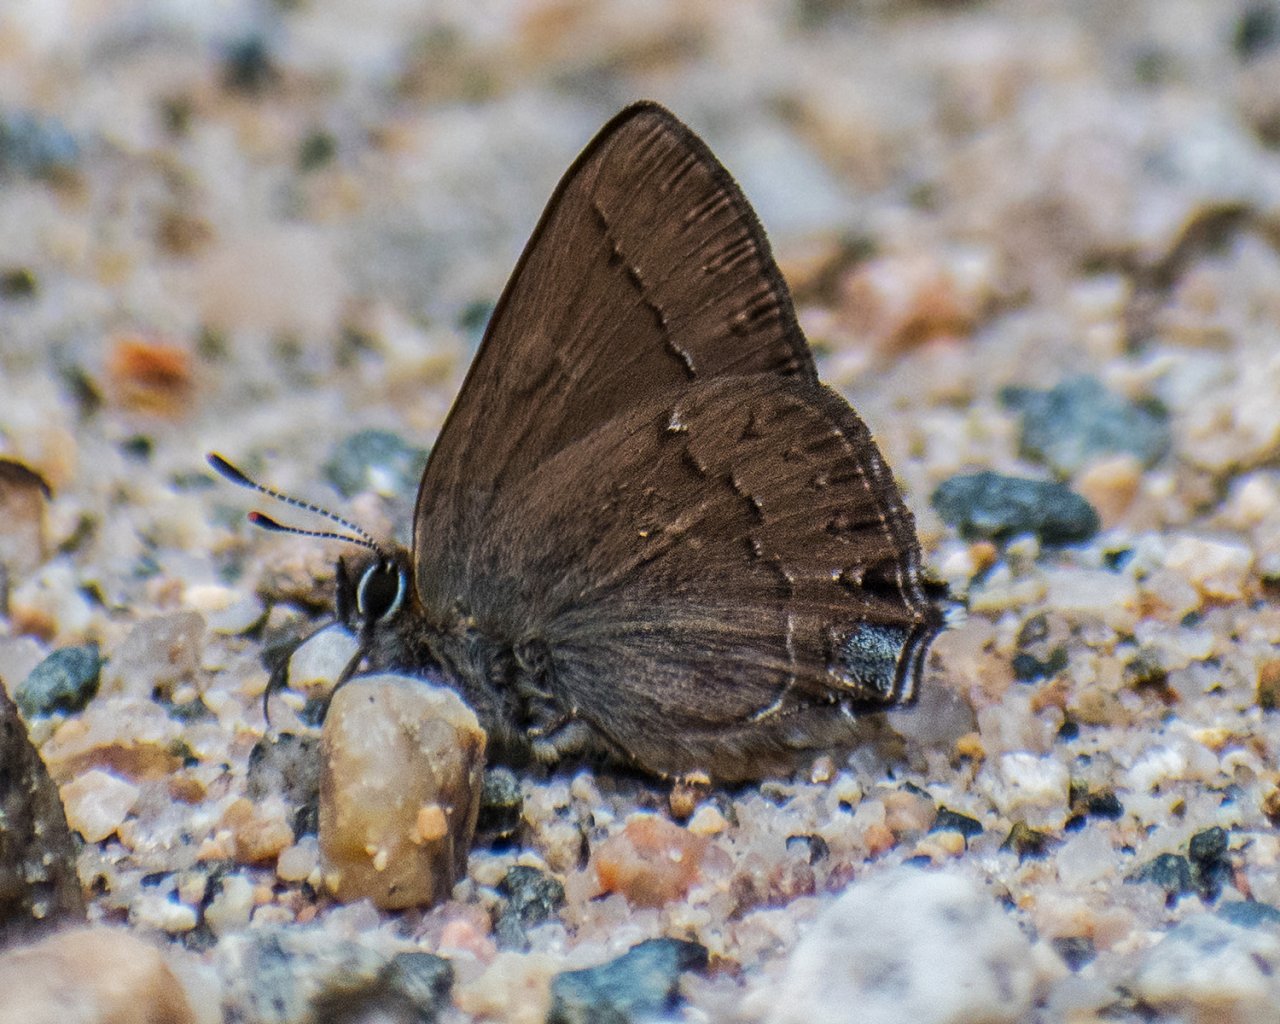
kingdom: Animalia
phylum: Arthropoda
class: Insecta
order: Lepidoptera
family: Lycaenidae
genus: Strymon
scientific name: Strymon saepium
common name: Hedgerow Hairstreak
